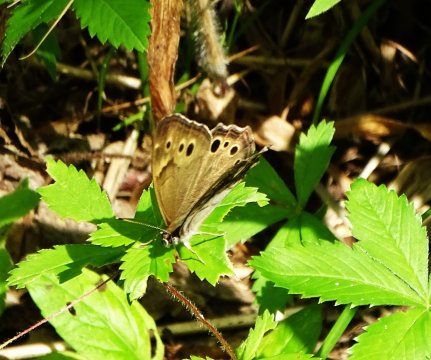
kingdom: Animalia
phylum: Arthropoda
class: Insecta
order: Lepidoptera
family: Nymphalidae
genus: Lethe
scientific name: Lethe anthedon
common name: Northern Pearly-Eye
